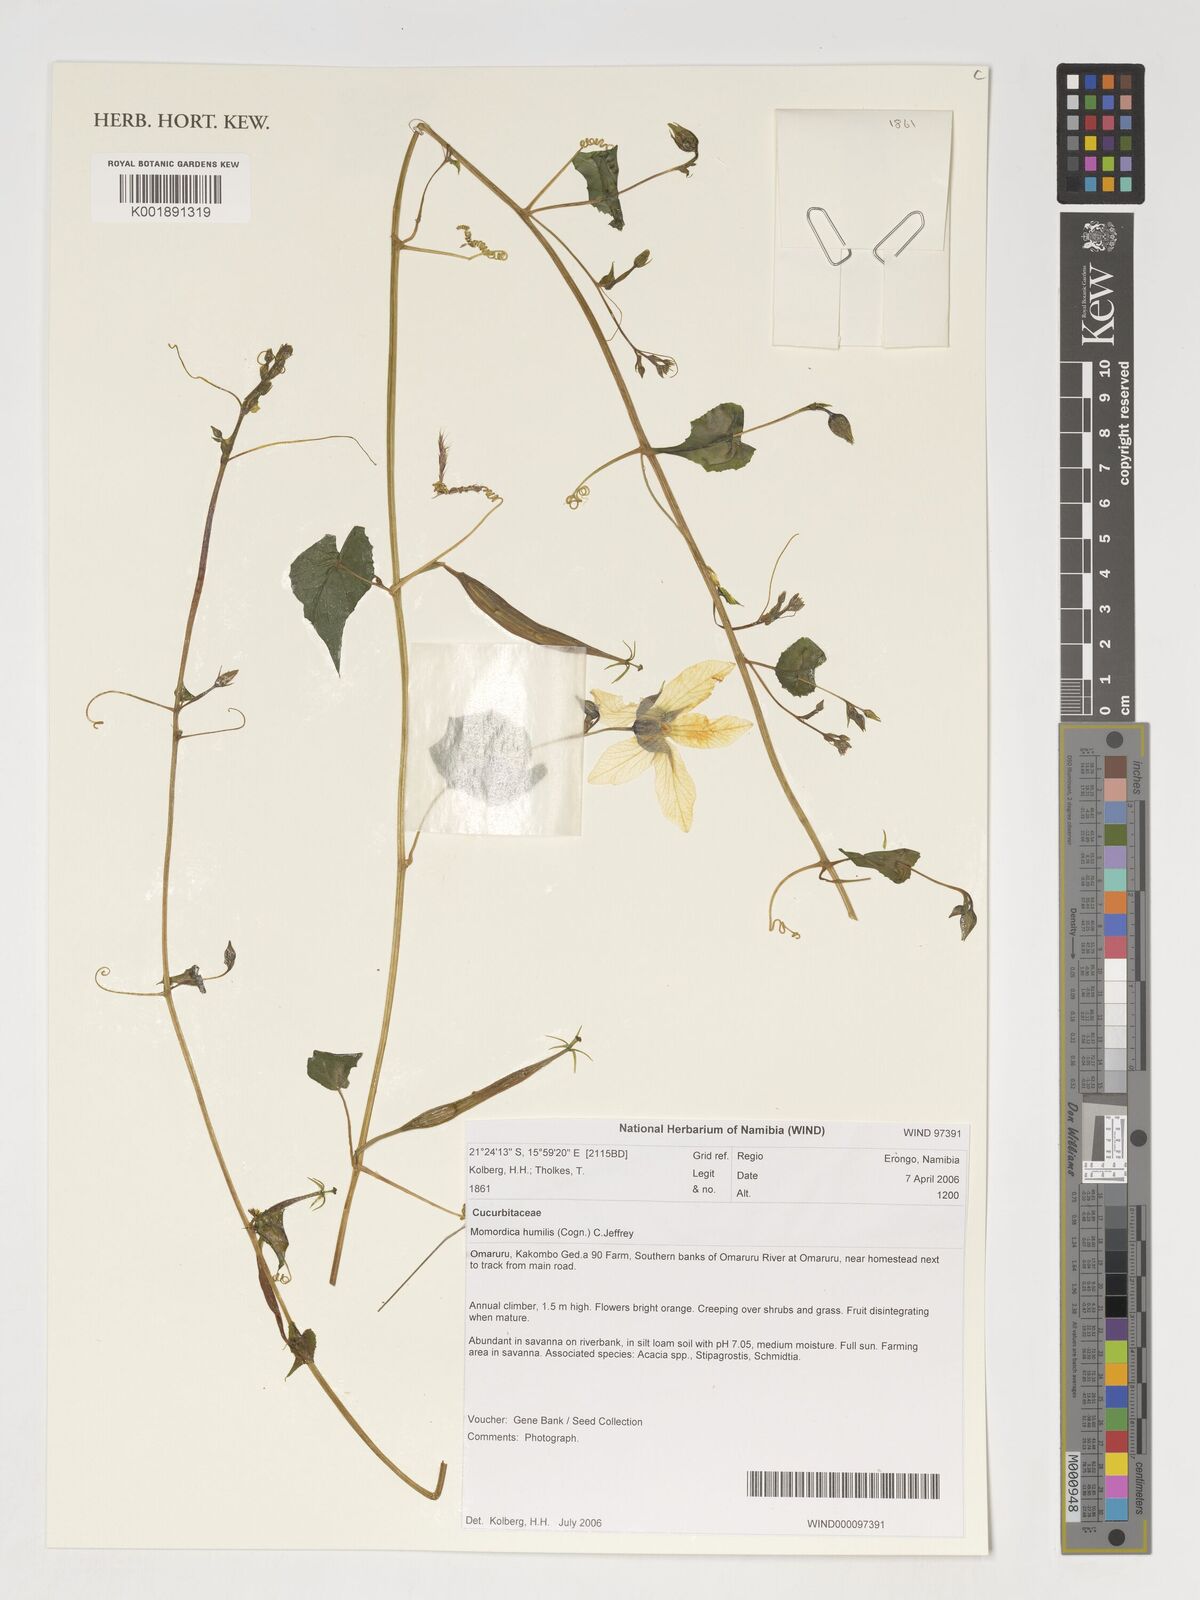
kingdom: Plantae
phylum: Tracheophyta
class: Magnoliopsida
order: Cucurbitales
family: Cucurbitaceae
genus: Momordica
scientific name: Momordica humilis
